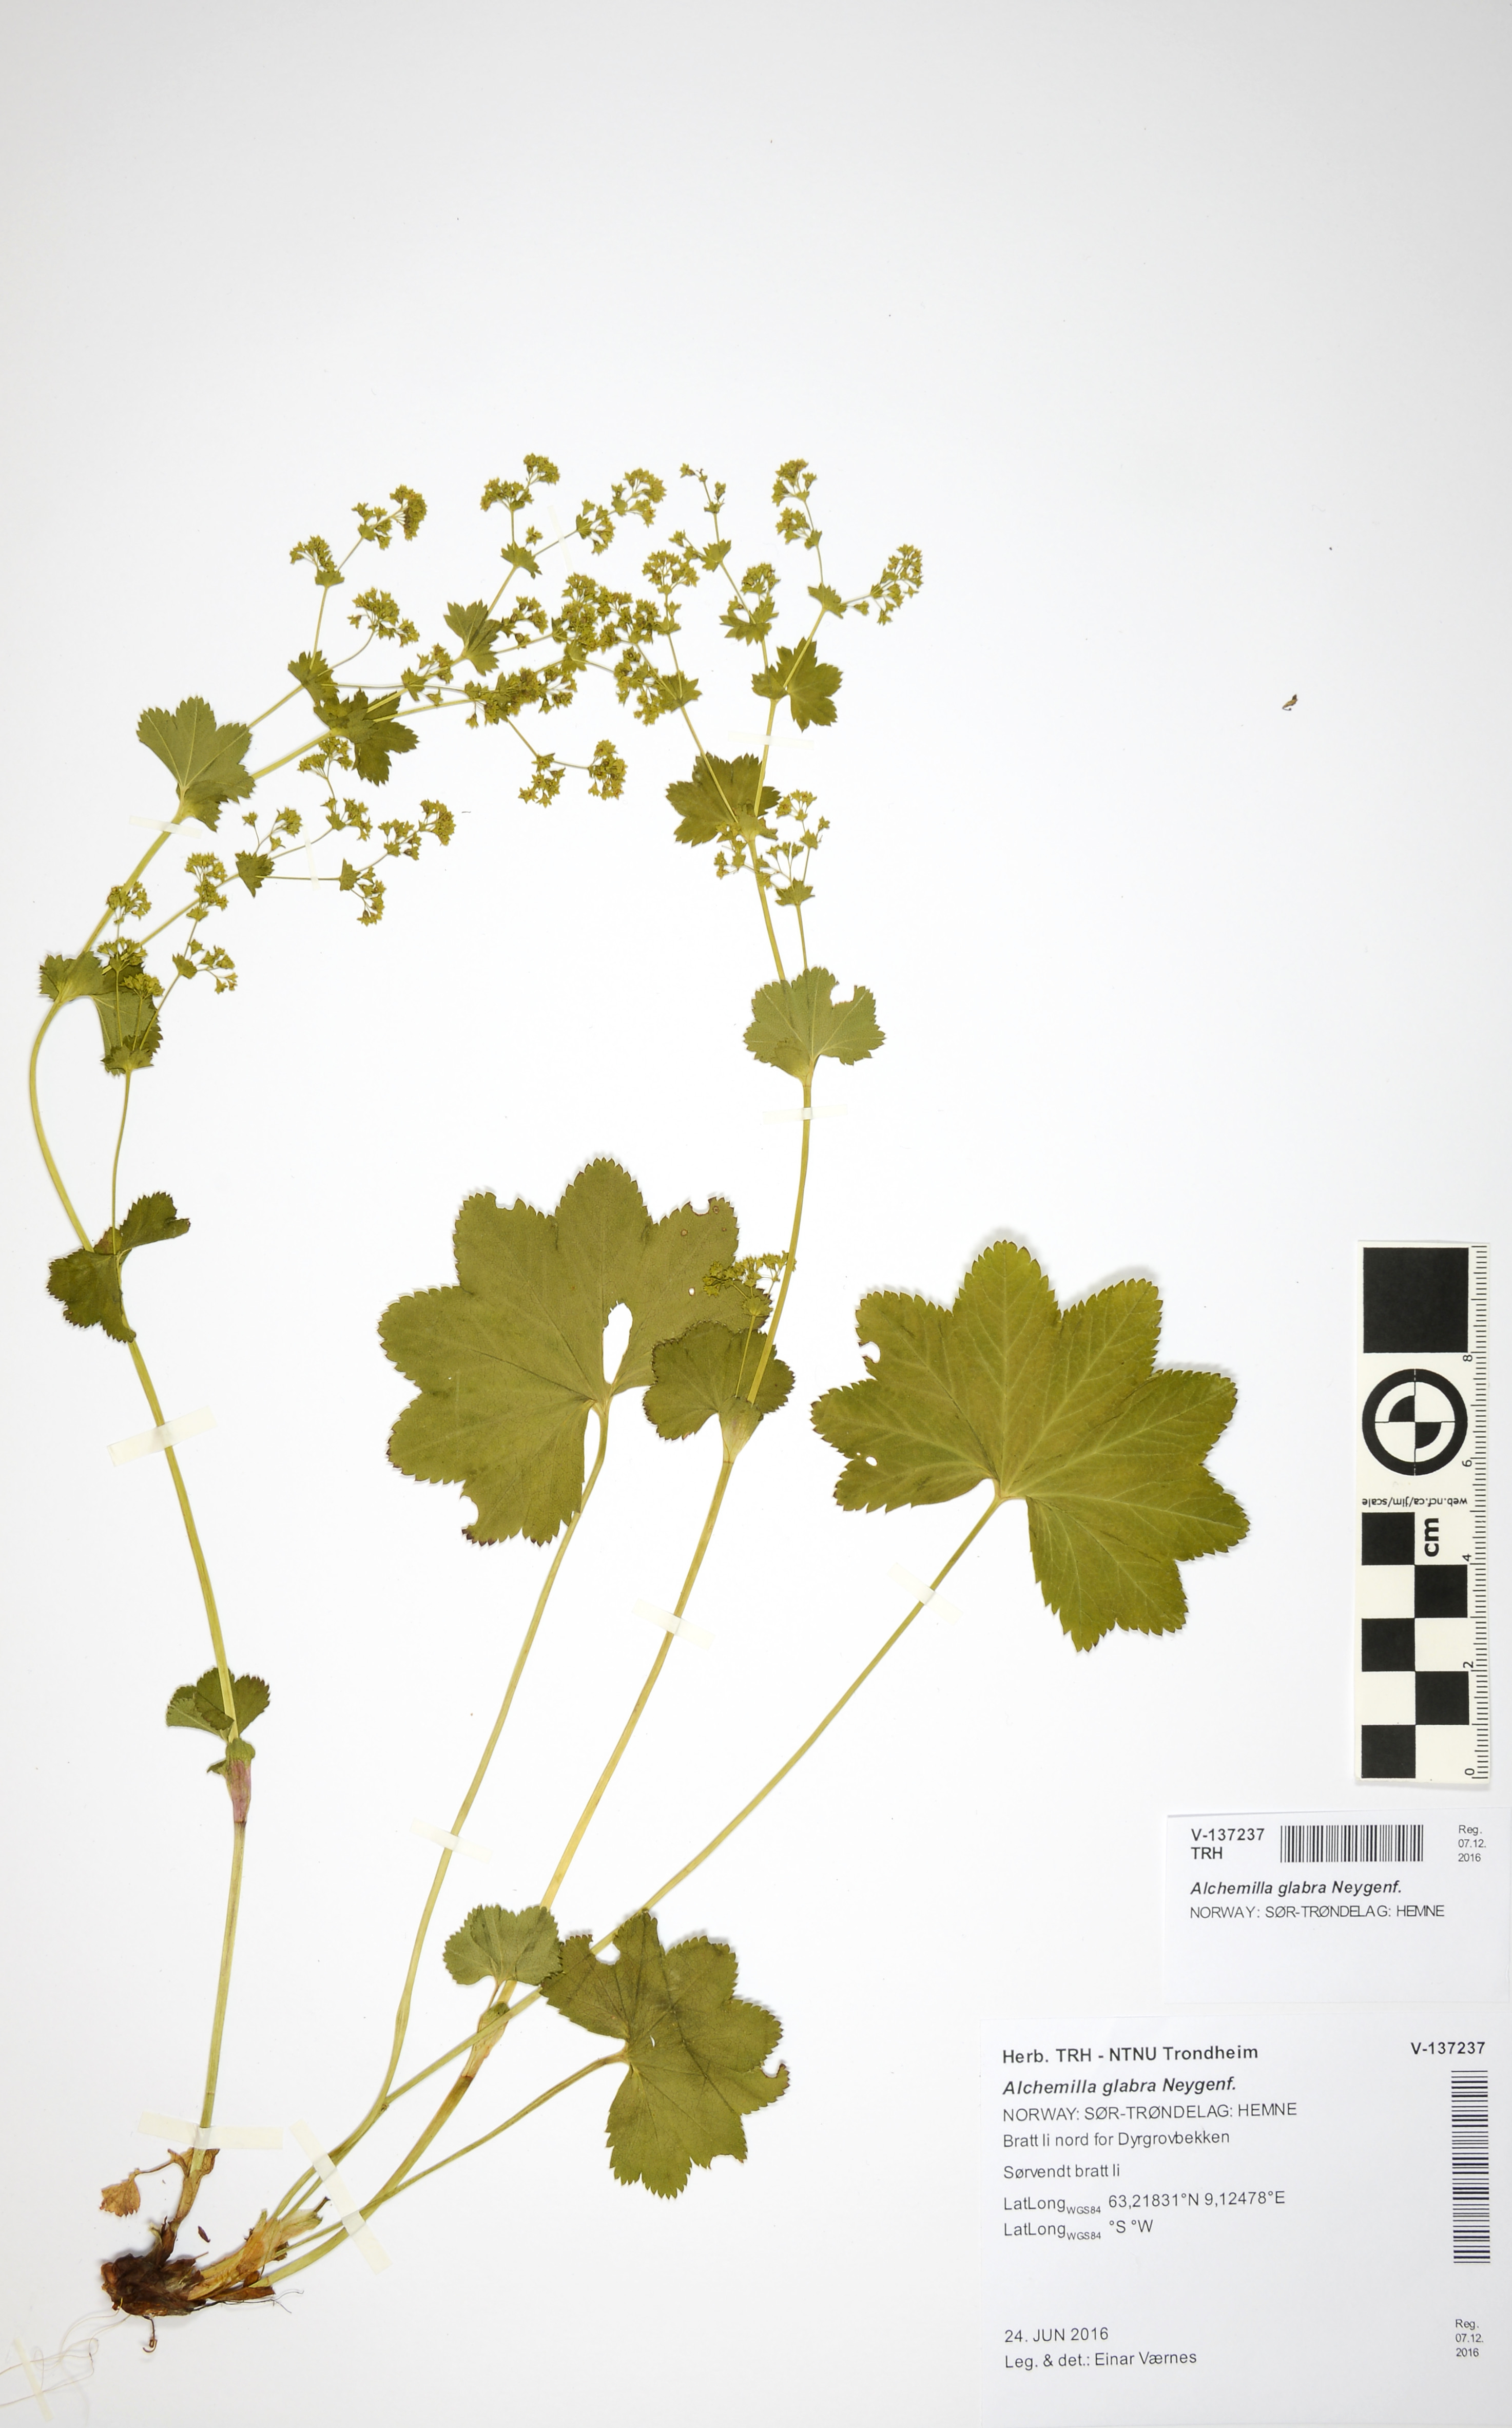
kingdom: Plantae
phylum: Tracheophyta
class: Magnoliopsida
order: Rosales
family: Rosaceae
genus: Alchemilla
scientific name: Alchemilla glabra
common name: Smooth lady's-mantle
